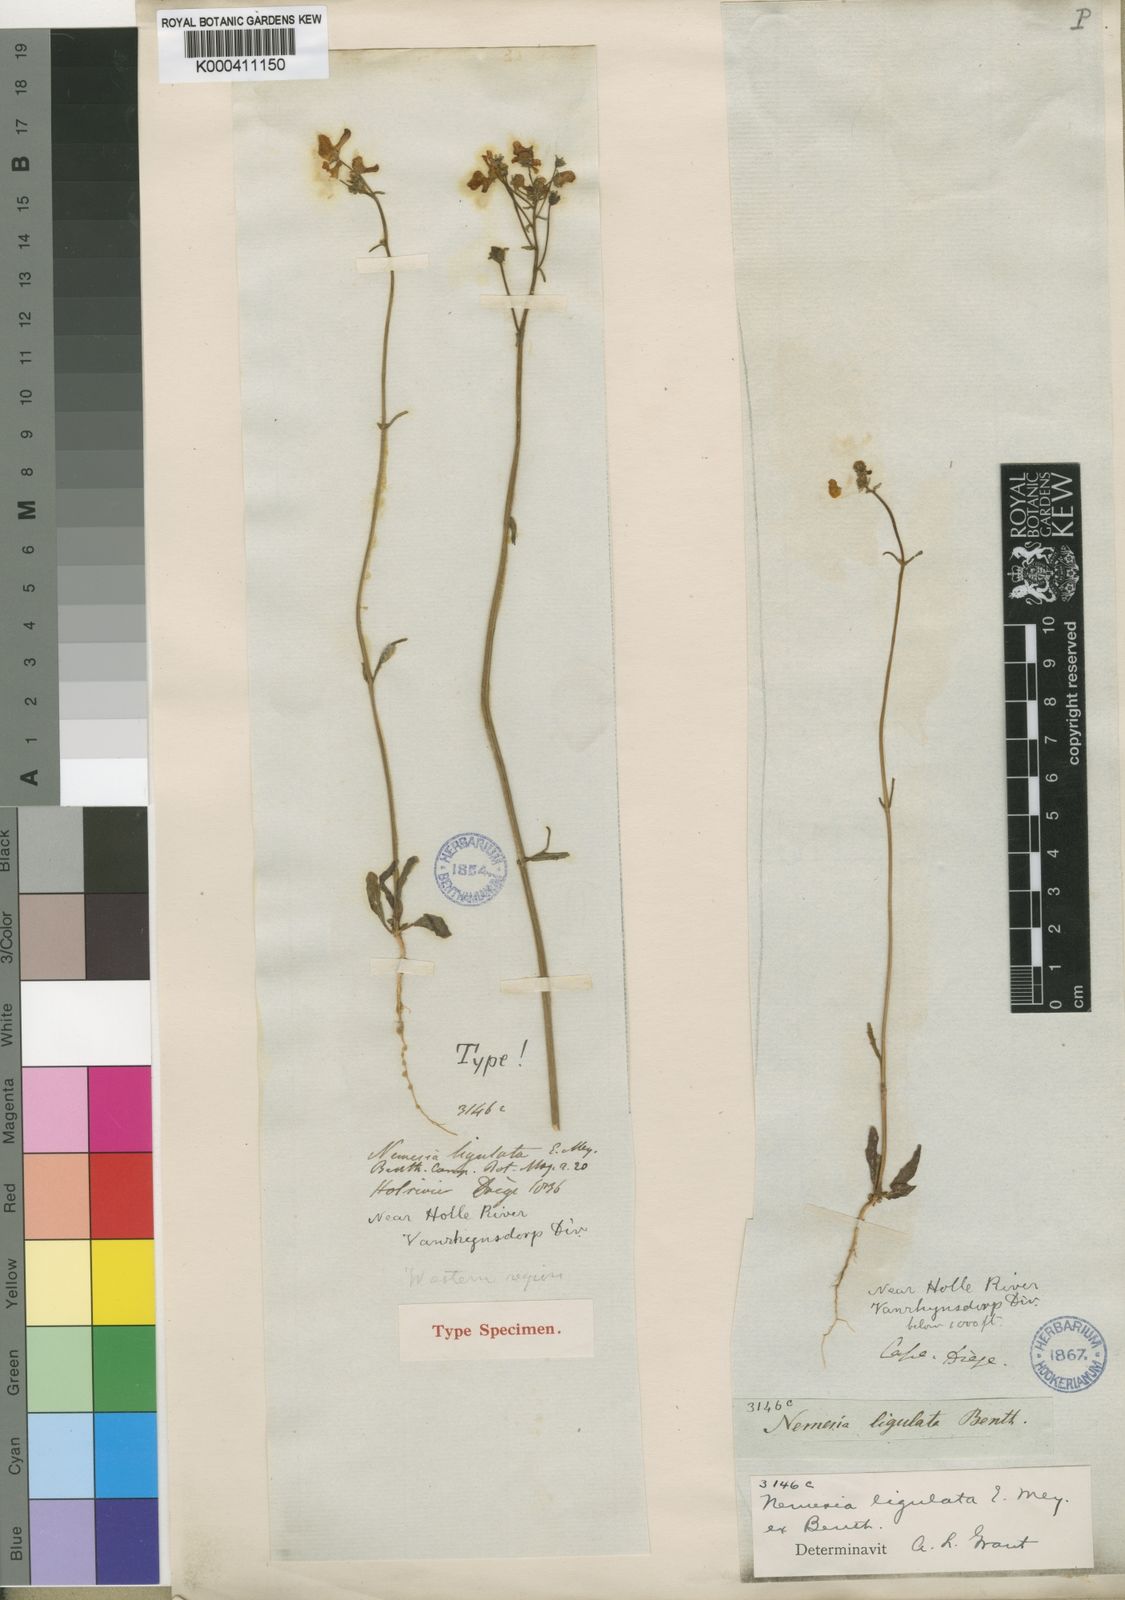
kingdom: Plantae
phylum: Tracheophyta
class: Magnoliopsida
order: Lamiales
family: Scrophulariaceae
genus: Nemesia
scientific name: Nemesia ligulata
